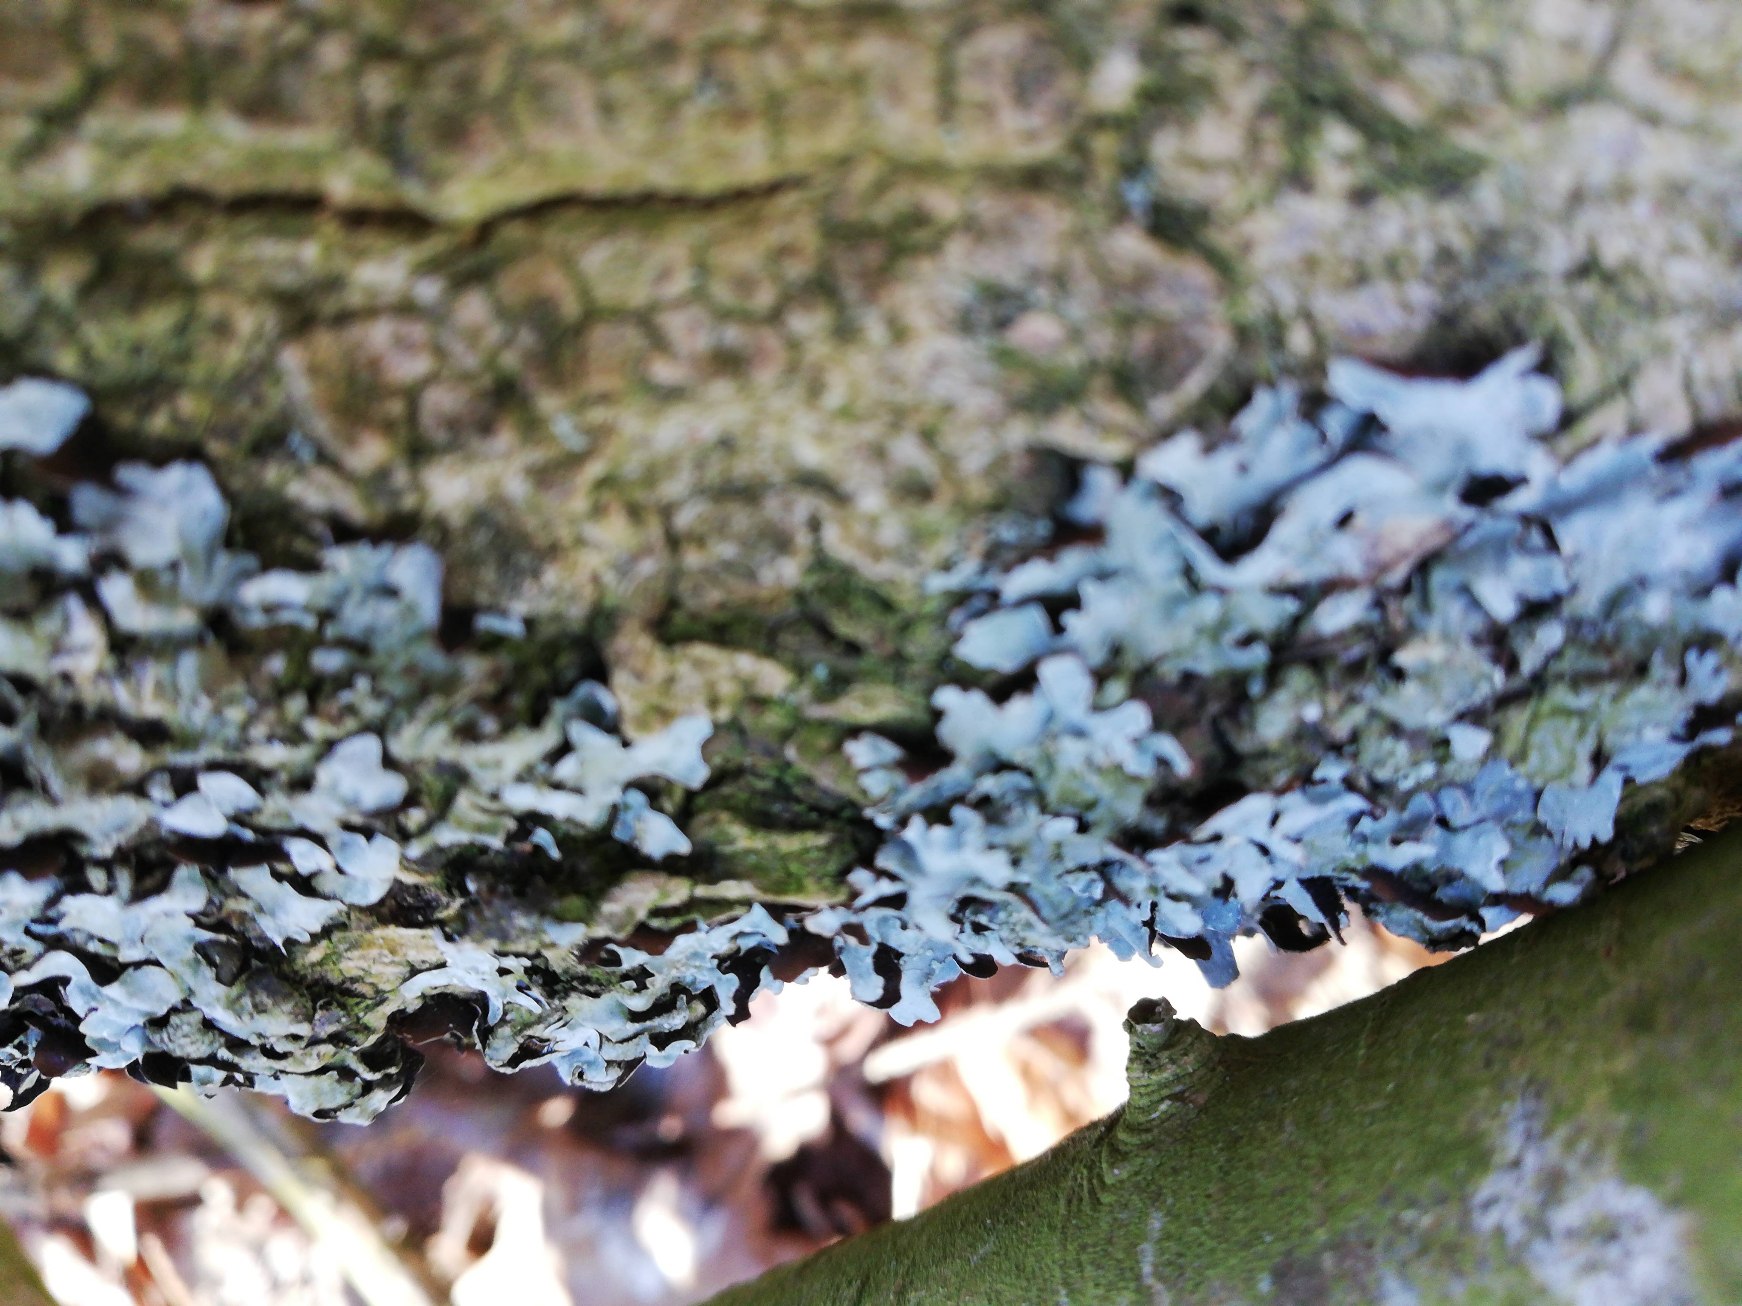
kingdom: Fungi
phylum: Ascomycota
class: Lecanoromycetes
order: Lecanorales
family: Parmeliaceae
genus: Parmelia
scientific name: Parmelia sulcata
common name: Rynket skållav
